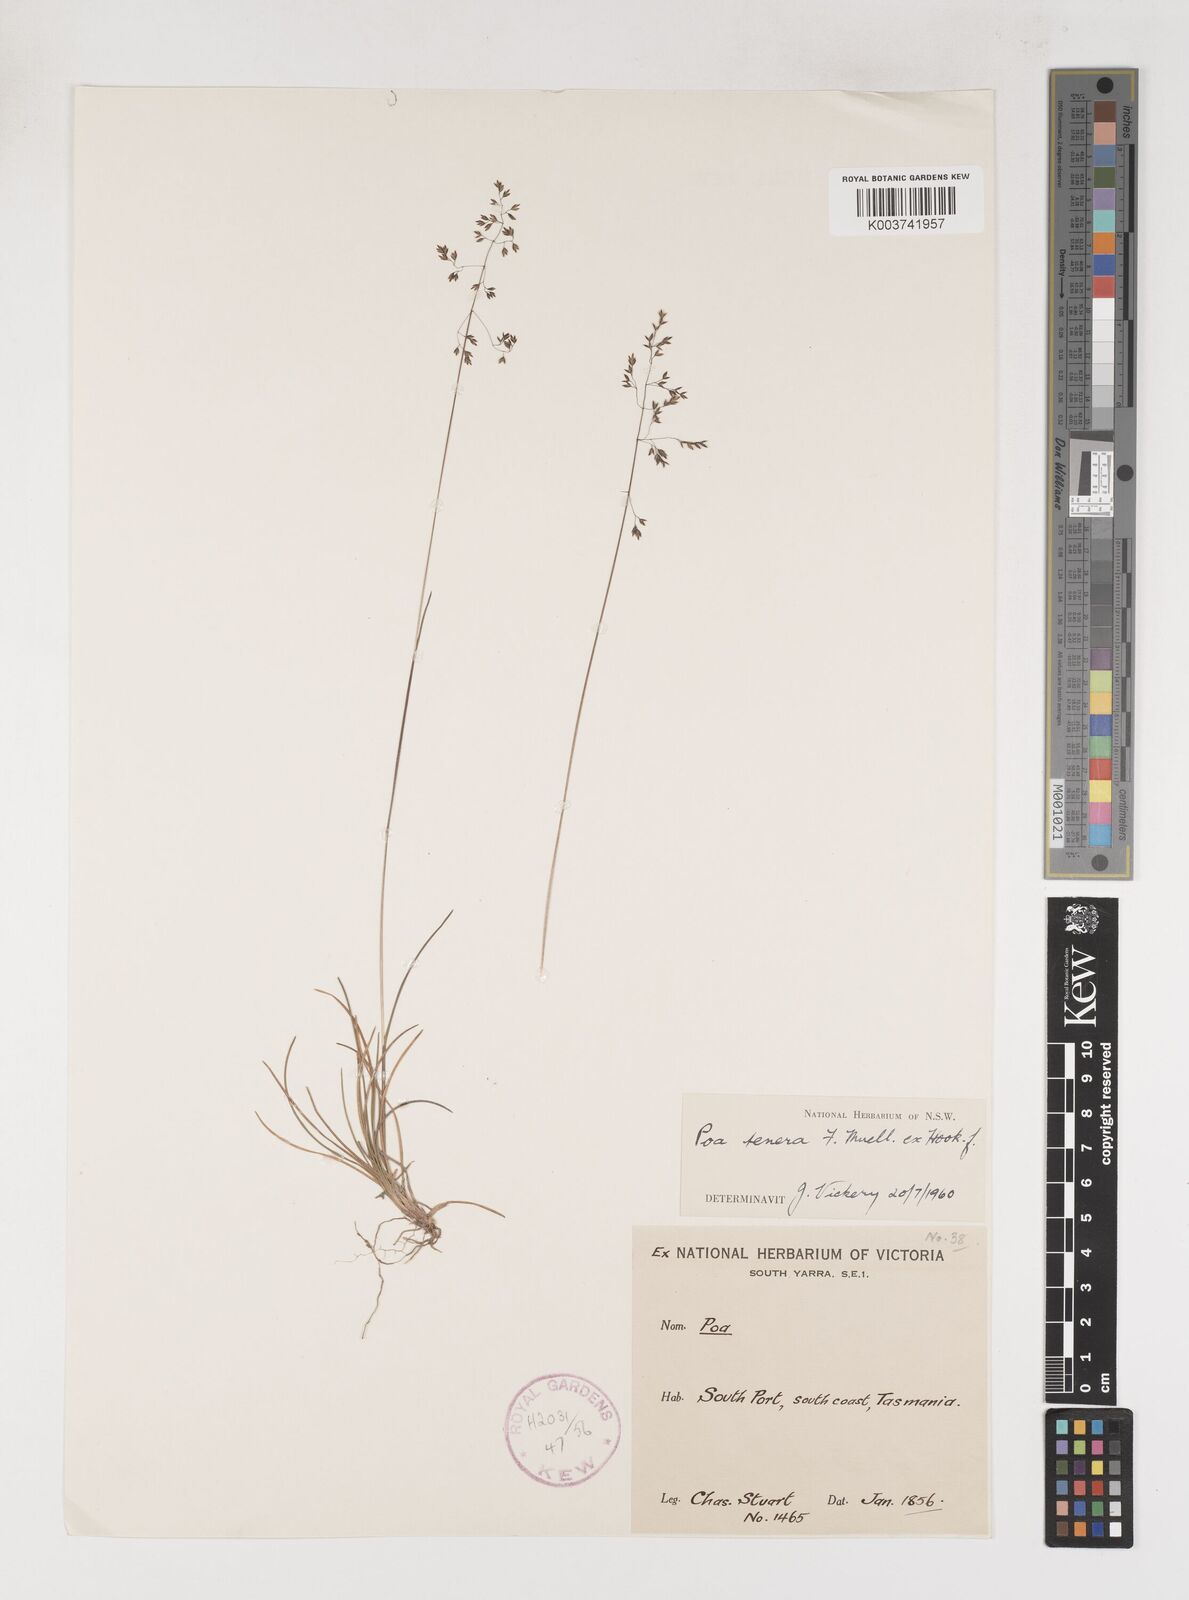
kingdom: Plantae
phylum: Tracheophyta
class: Liliopsida
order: Poales
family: Poaceae
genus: Poa
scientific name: Poa tenera
